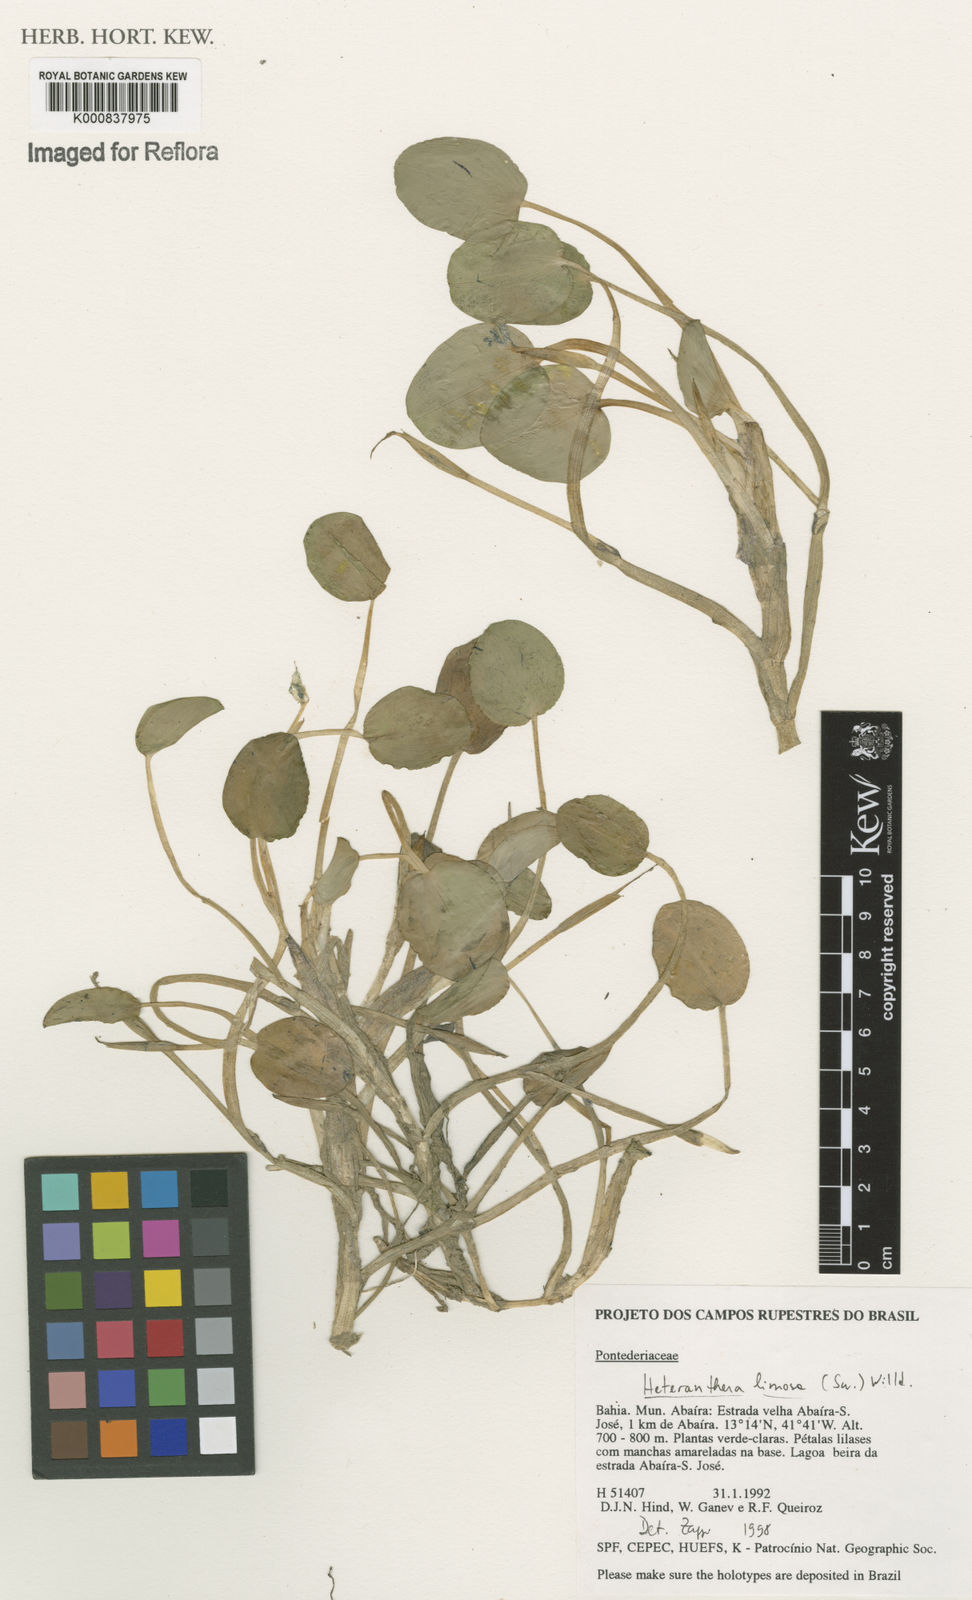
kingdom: Plantae
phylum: Tracheophyta
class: Liliopsida
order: Commelinales
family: Pontederiaceae
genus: Heteranthera
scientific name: Heteranthera rotundifolia
